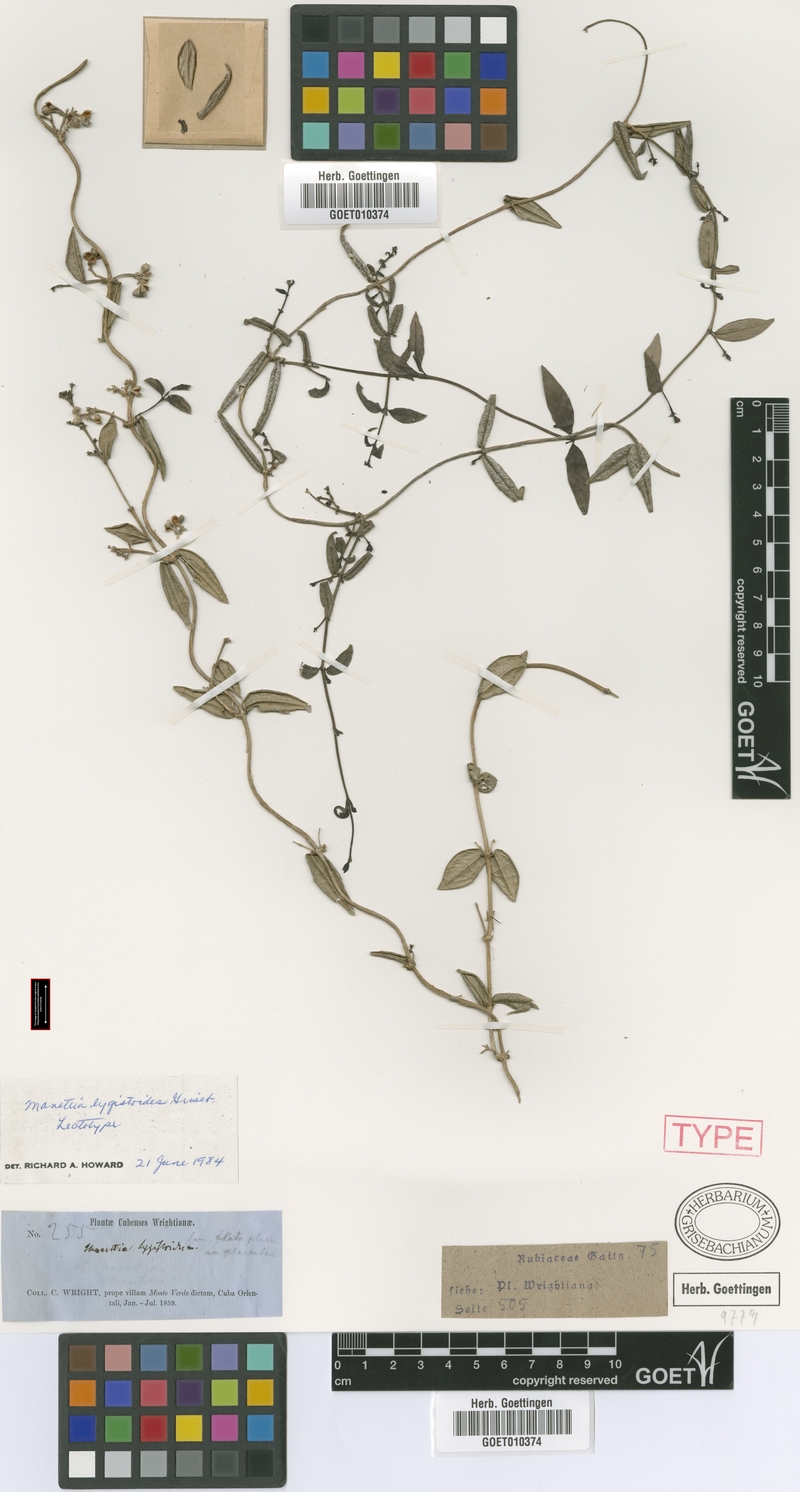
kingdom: Plantae
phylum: Tracheophyta
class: Magnoliopsida
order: Gentianales
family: Rubiaceae
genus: Manettia
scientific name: Manettia lygistum
